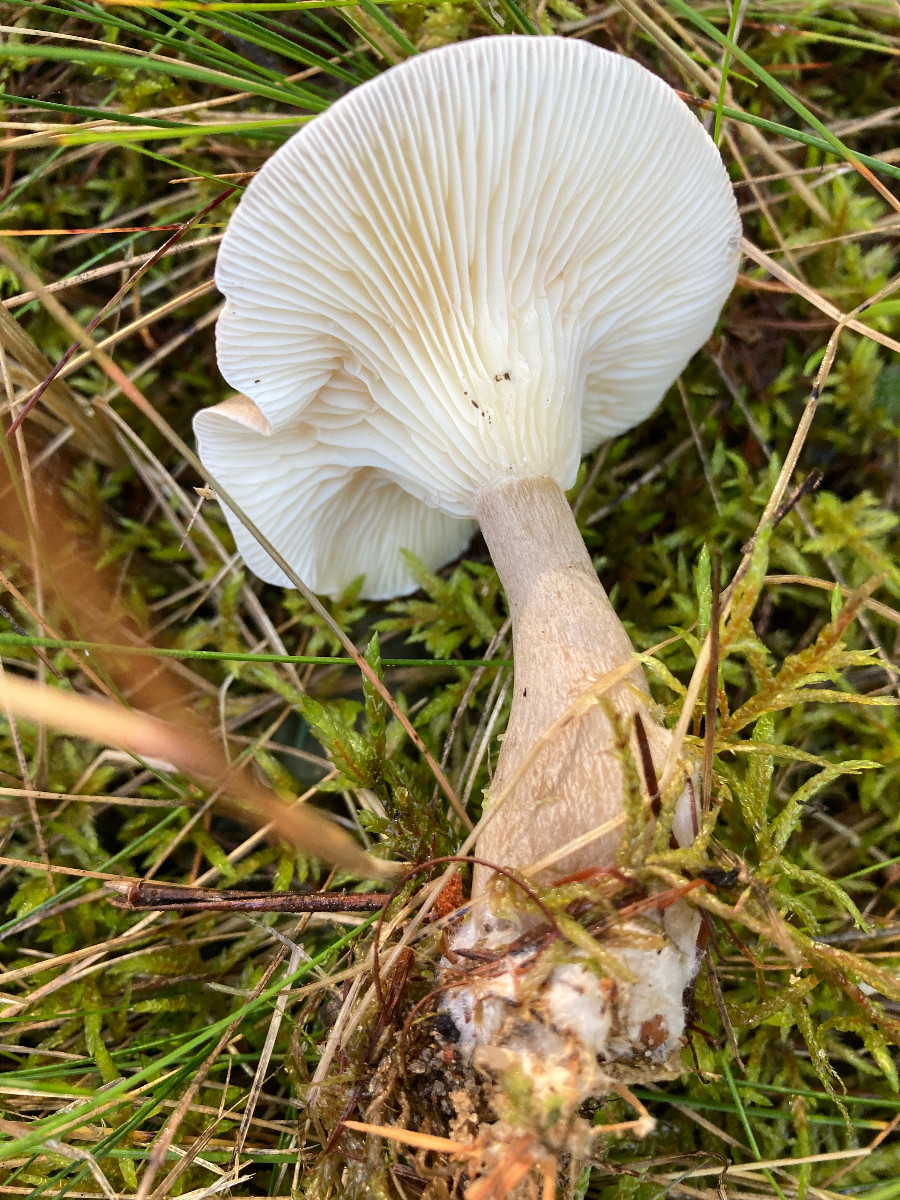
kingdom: Fungi
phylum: Basidiomycota
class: Agaricomycetes
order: Agaricales
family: Hygrophoraceae
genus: Ampulloclitocybe
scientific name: Ampulloclitocybe clavipes
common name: køllefod
